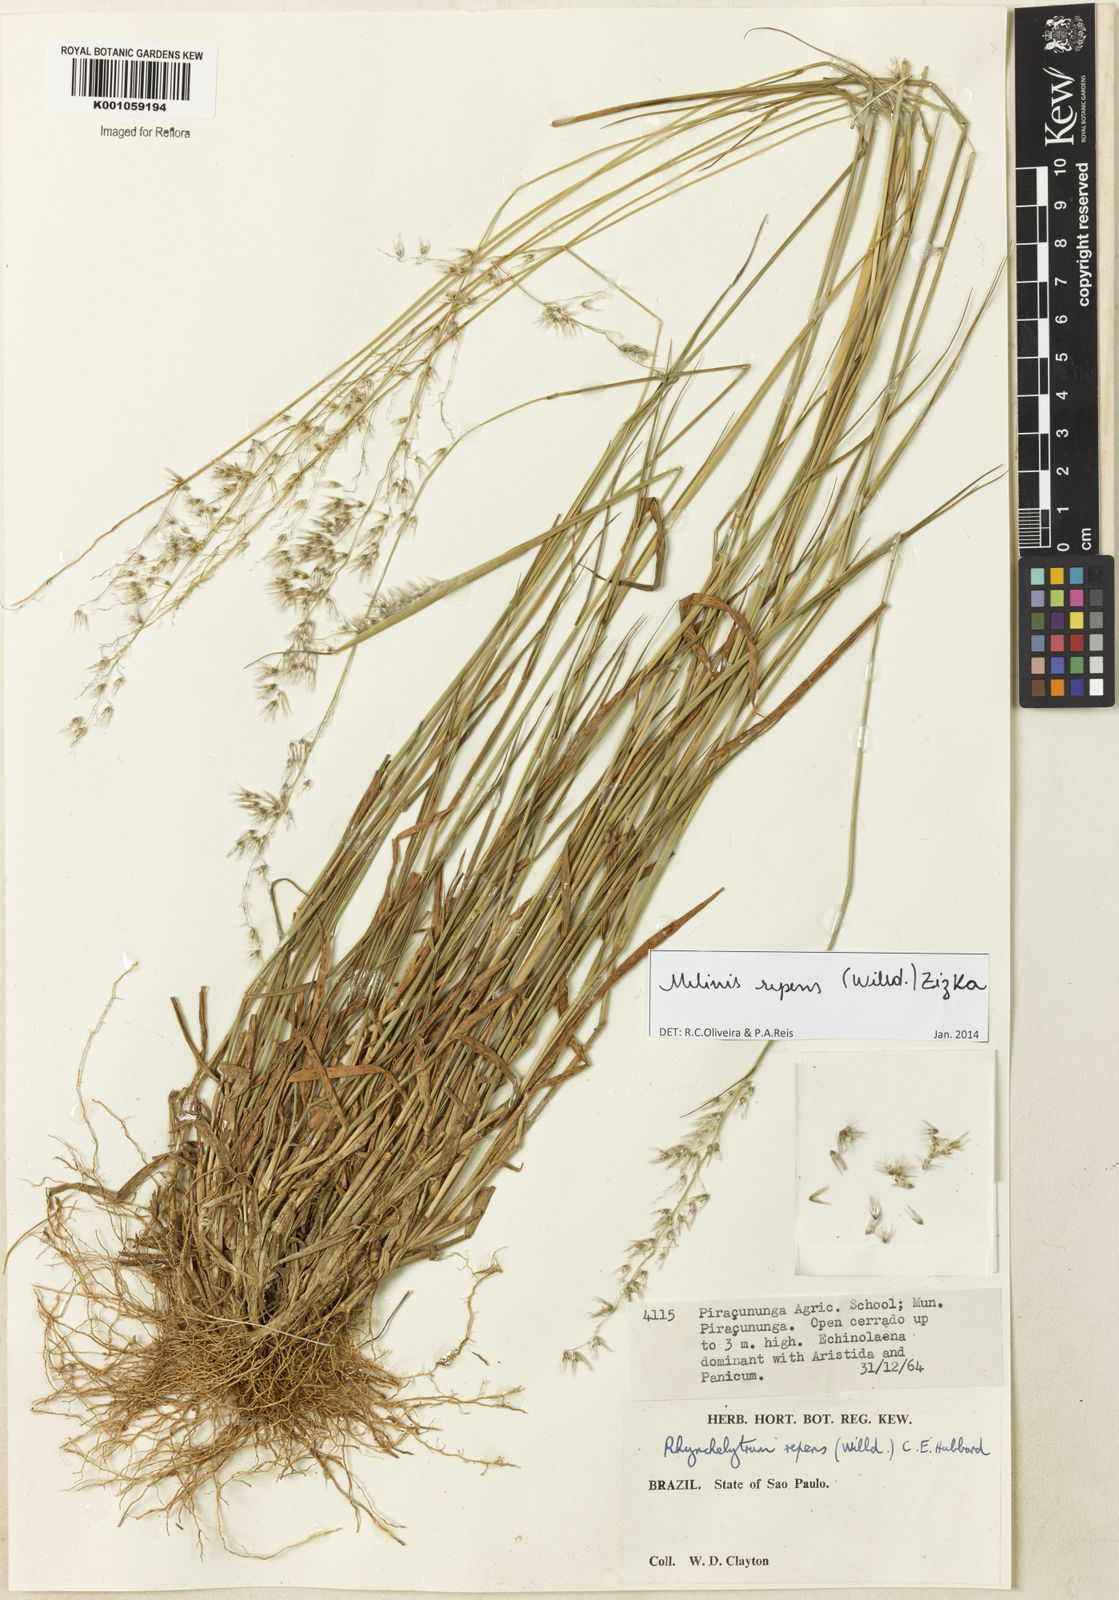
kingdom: Plantae
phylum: Tracheophyta
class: Liliopsida
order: Poales
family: Poaceae
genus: Melinis
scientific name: Melinis repens
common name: Rose natal grass
